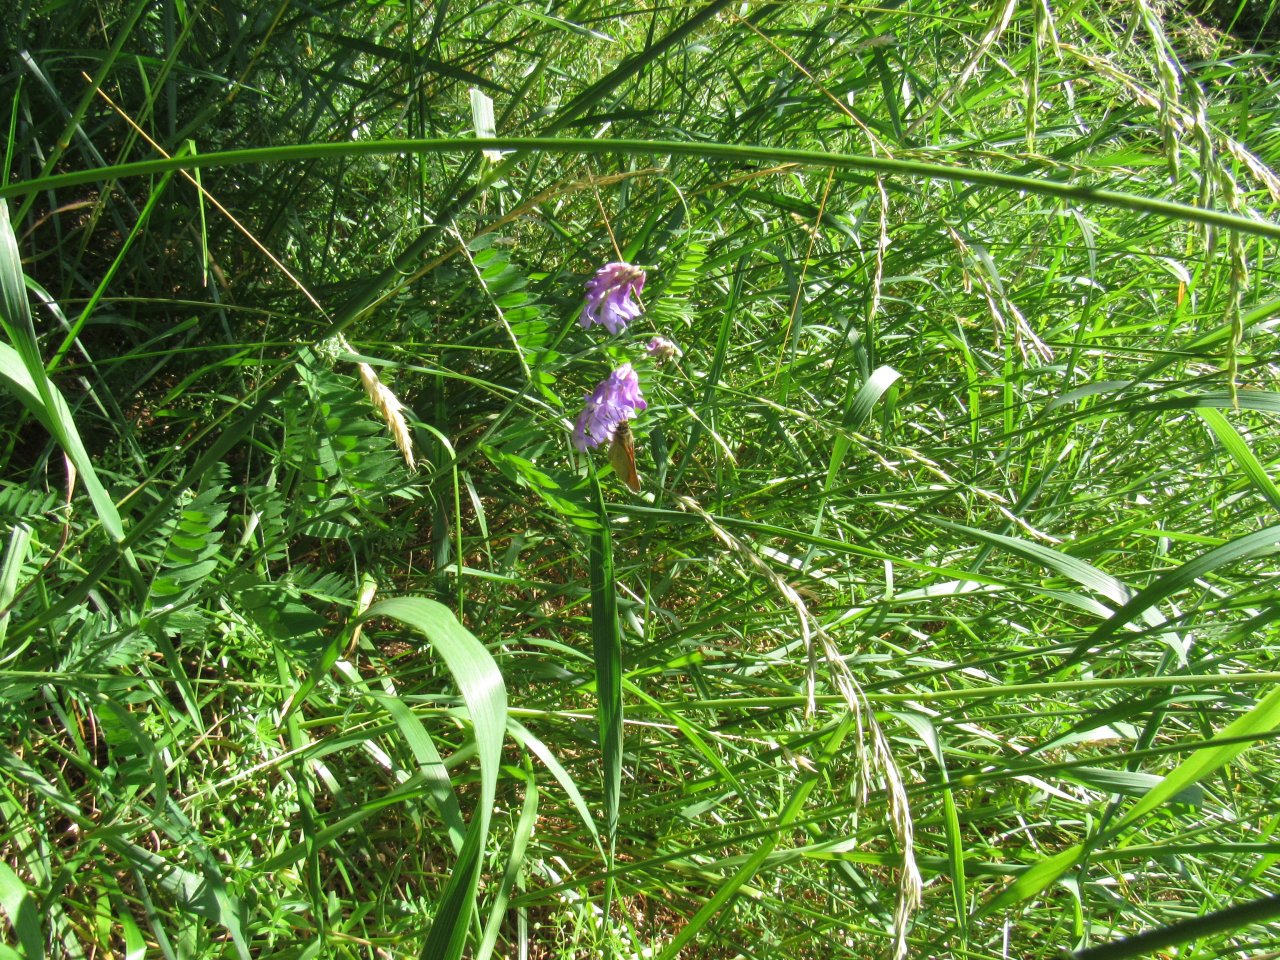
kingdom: Animalia
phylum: Arthropoda
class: Insecta
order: Lepidoptera
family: Hesperiidae
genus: Thymelicus
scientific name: Thymelicus lineola
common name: European Skipper
